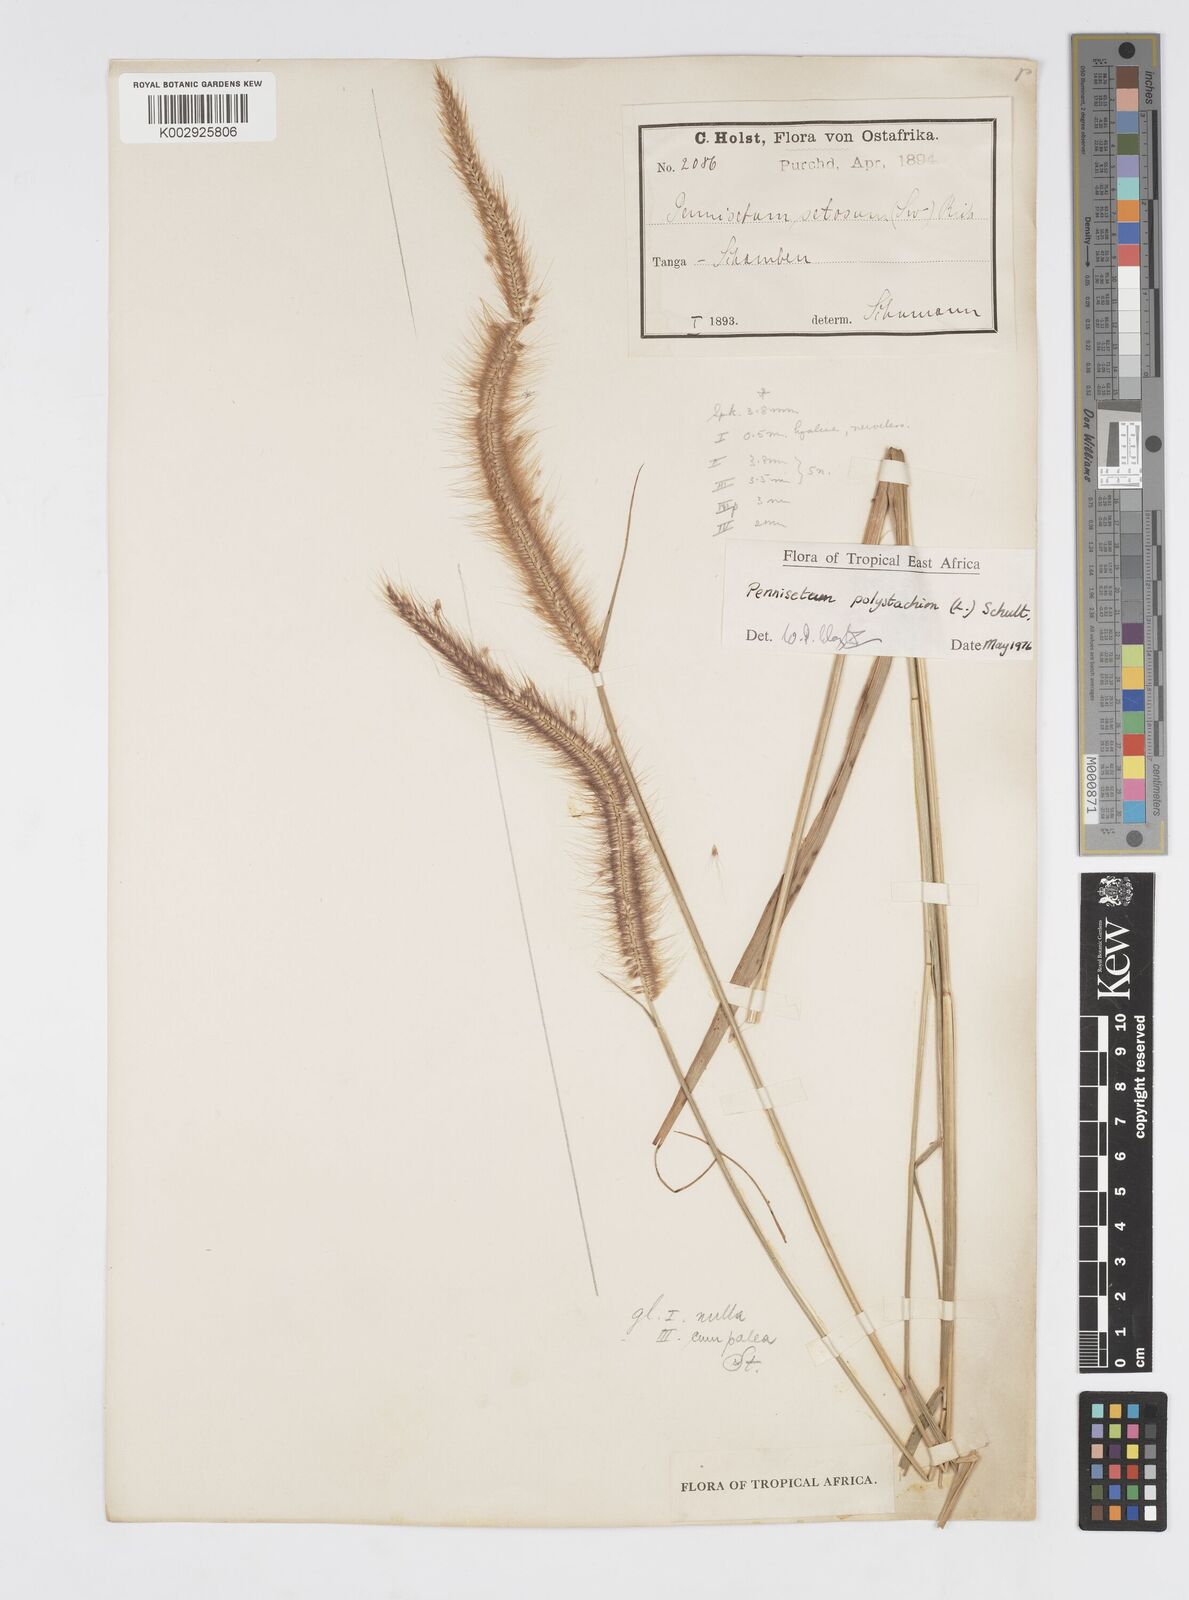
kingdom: Plantae
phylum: Tracheophyta
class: Liliopsida
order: Poales
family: Poaceae
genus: Setaria
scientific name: Setaria parviflora
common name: Knotroot bristle-grass
